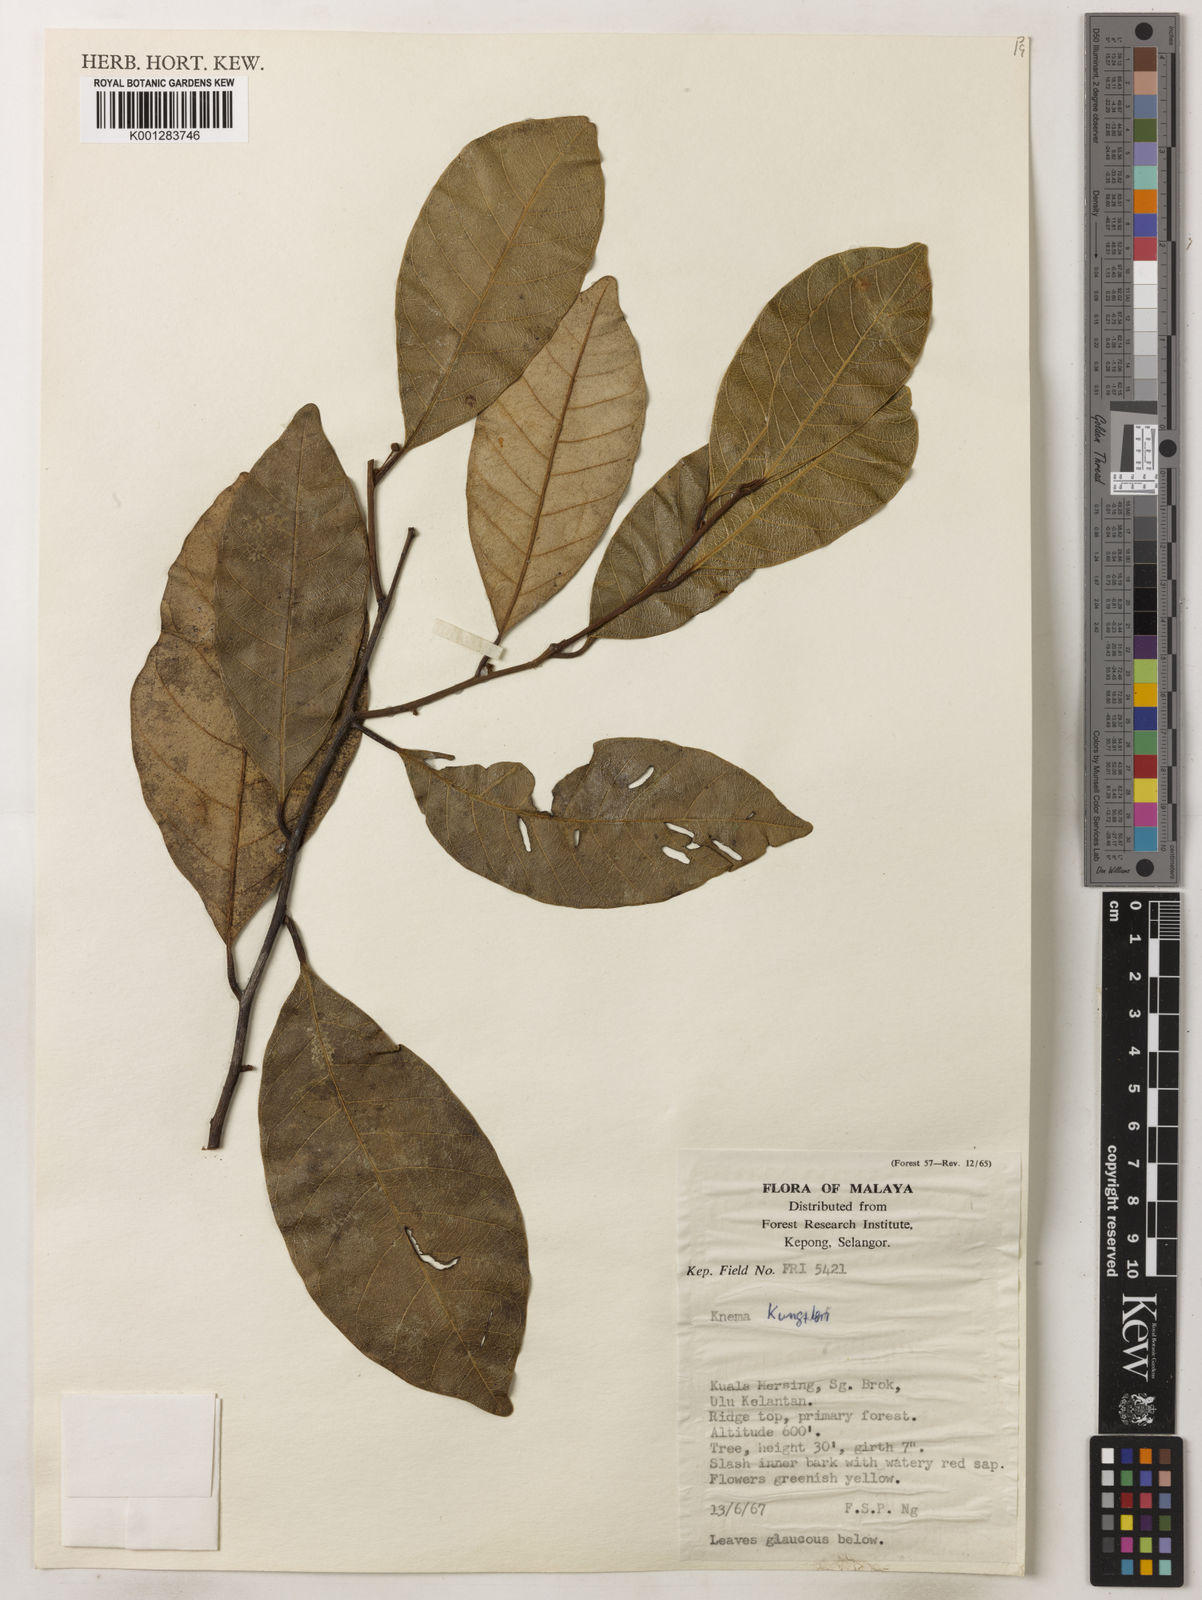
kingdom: Plantae
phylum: Tracheophyta
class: Magnoliopsida
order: Magnoliales
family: Myristicaceae
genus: Knema
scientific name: Knema kunstleri
